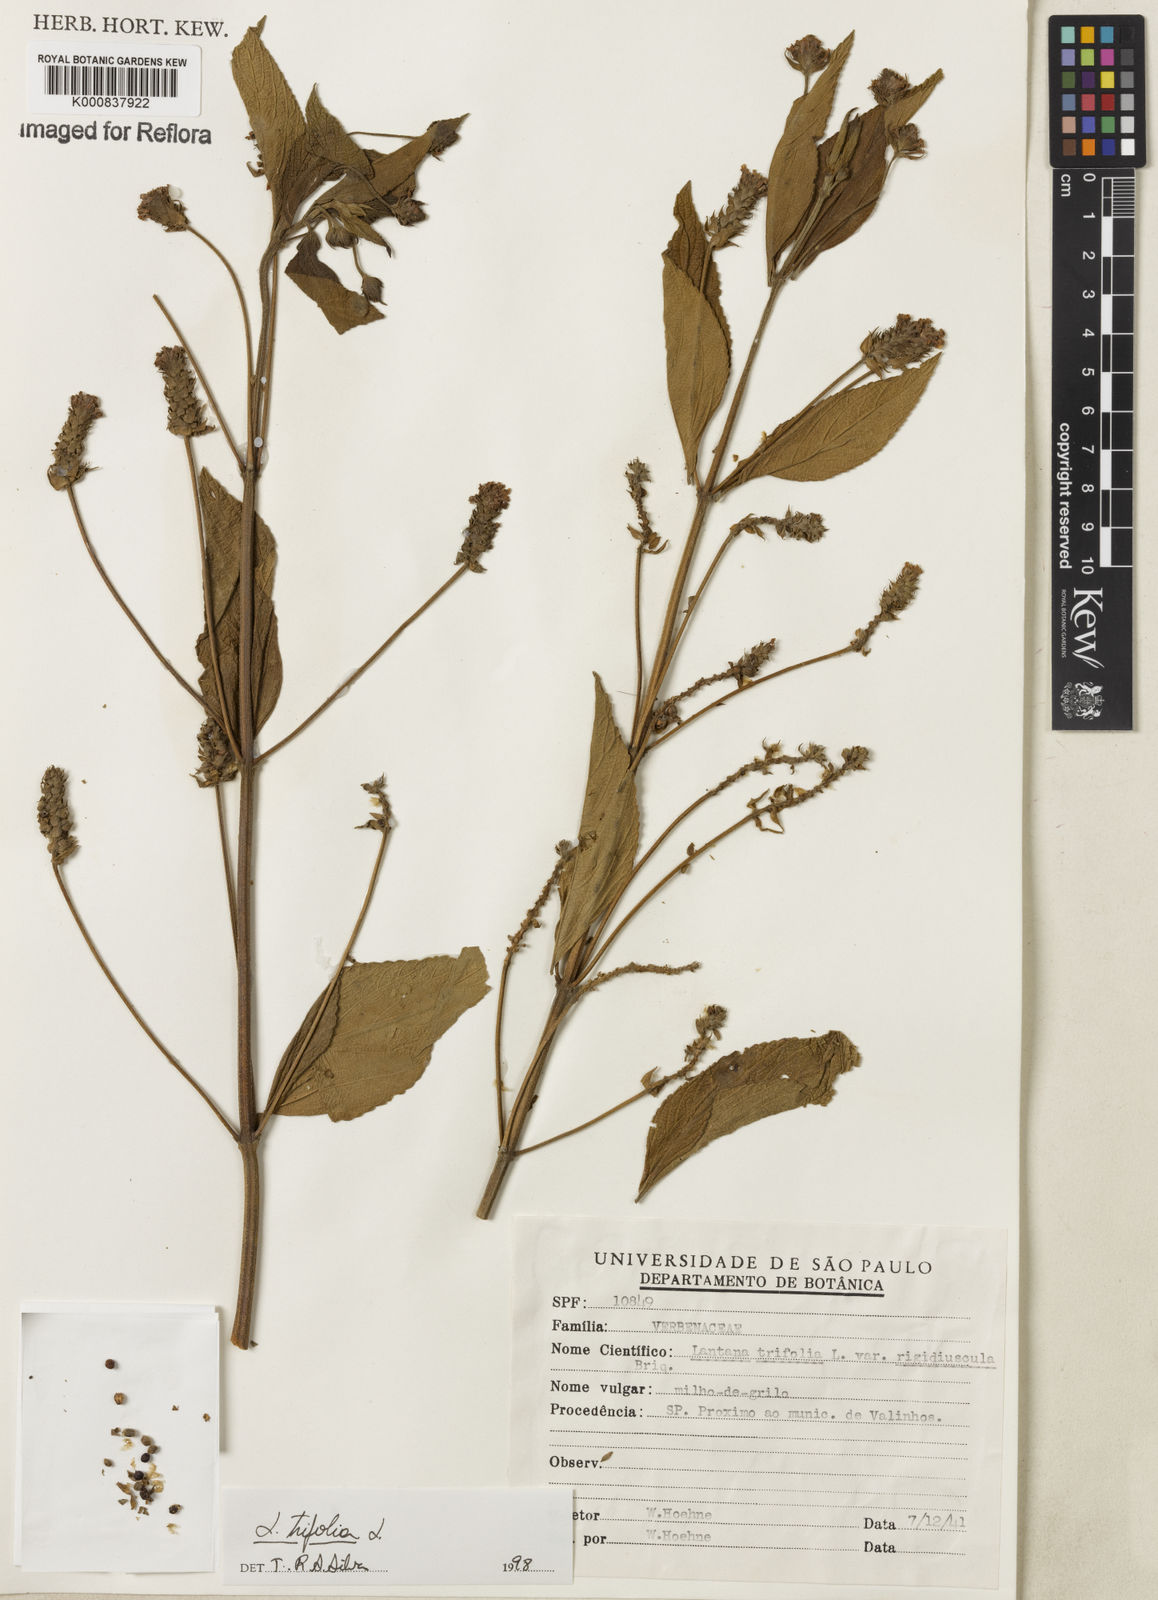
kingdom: Plantae
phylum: Tracheophyta
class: Magnoliopsida
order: Lamiales
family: Verbenaceae
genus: Lantana
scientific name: Lantana trifolia
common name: Sweet-sage
